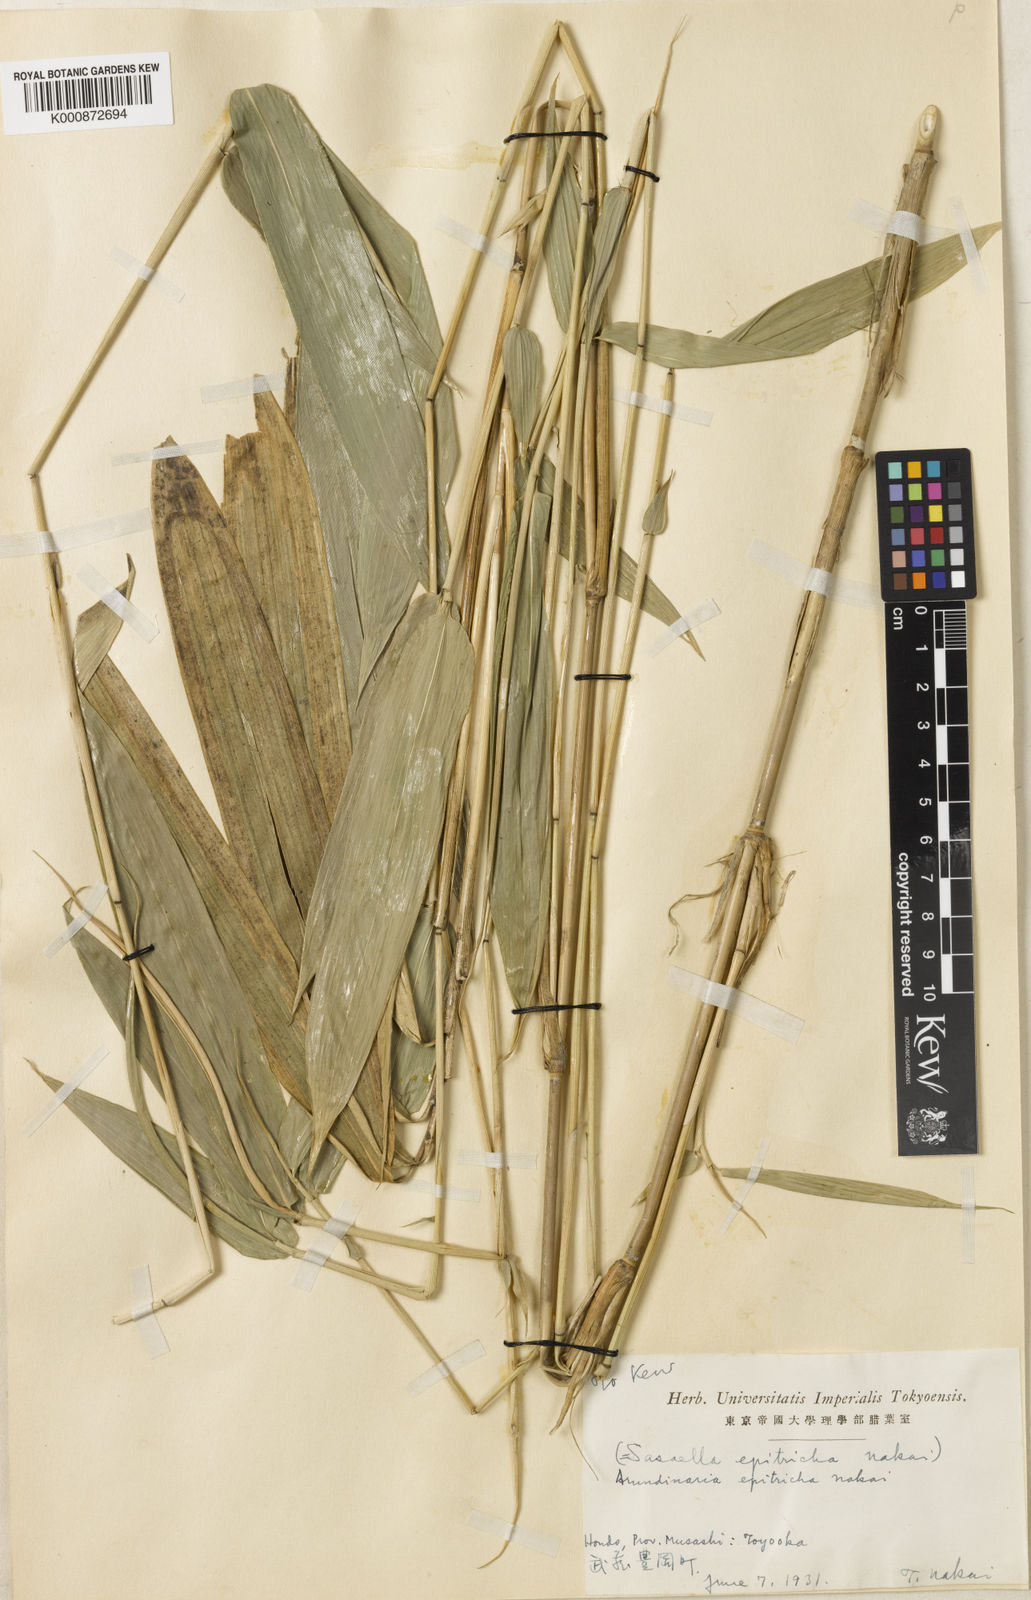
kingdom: Plantae
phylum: Tracheophyta
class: Liliopsida
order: Poales
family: Poaceae
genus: Sasaella
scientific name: Sasaella masamuneana
